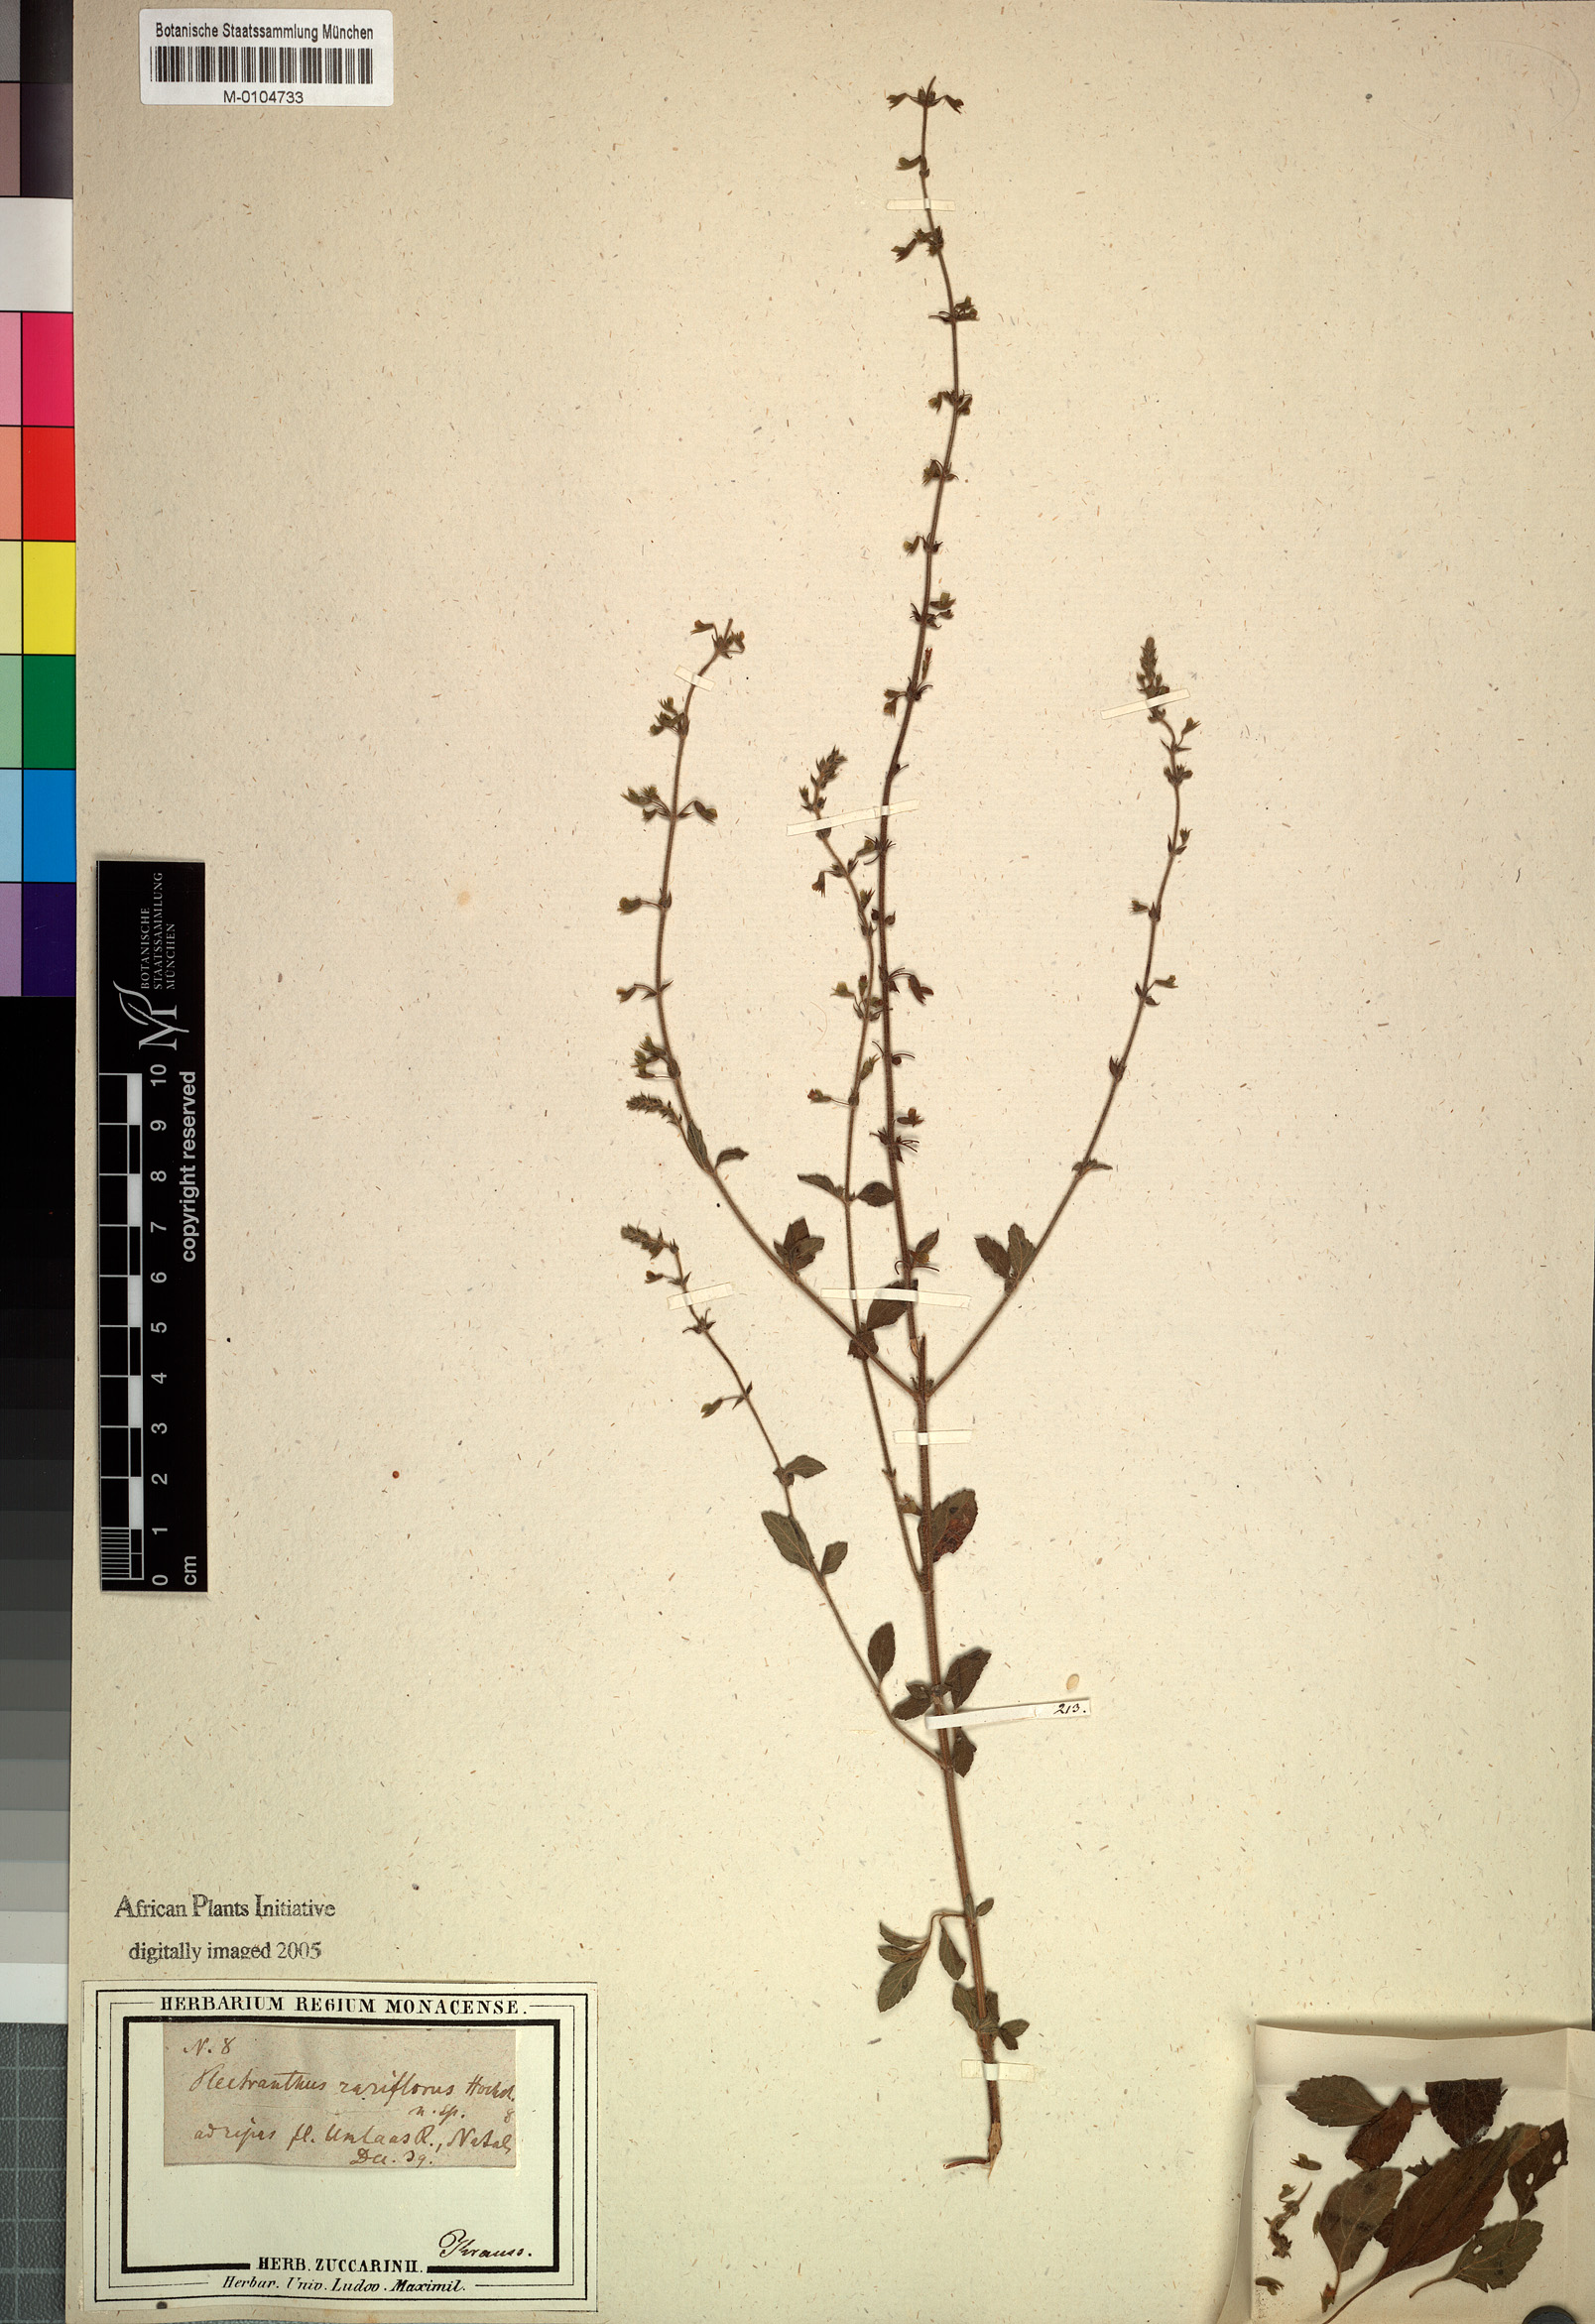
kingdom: Plantae
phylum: Tracheophyta
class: Magnoliopsida
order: Lamiales
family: Lamiaceae
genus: Endostemon
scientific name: Endostemon obtusifolius
